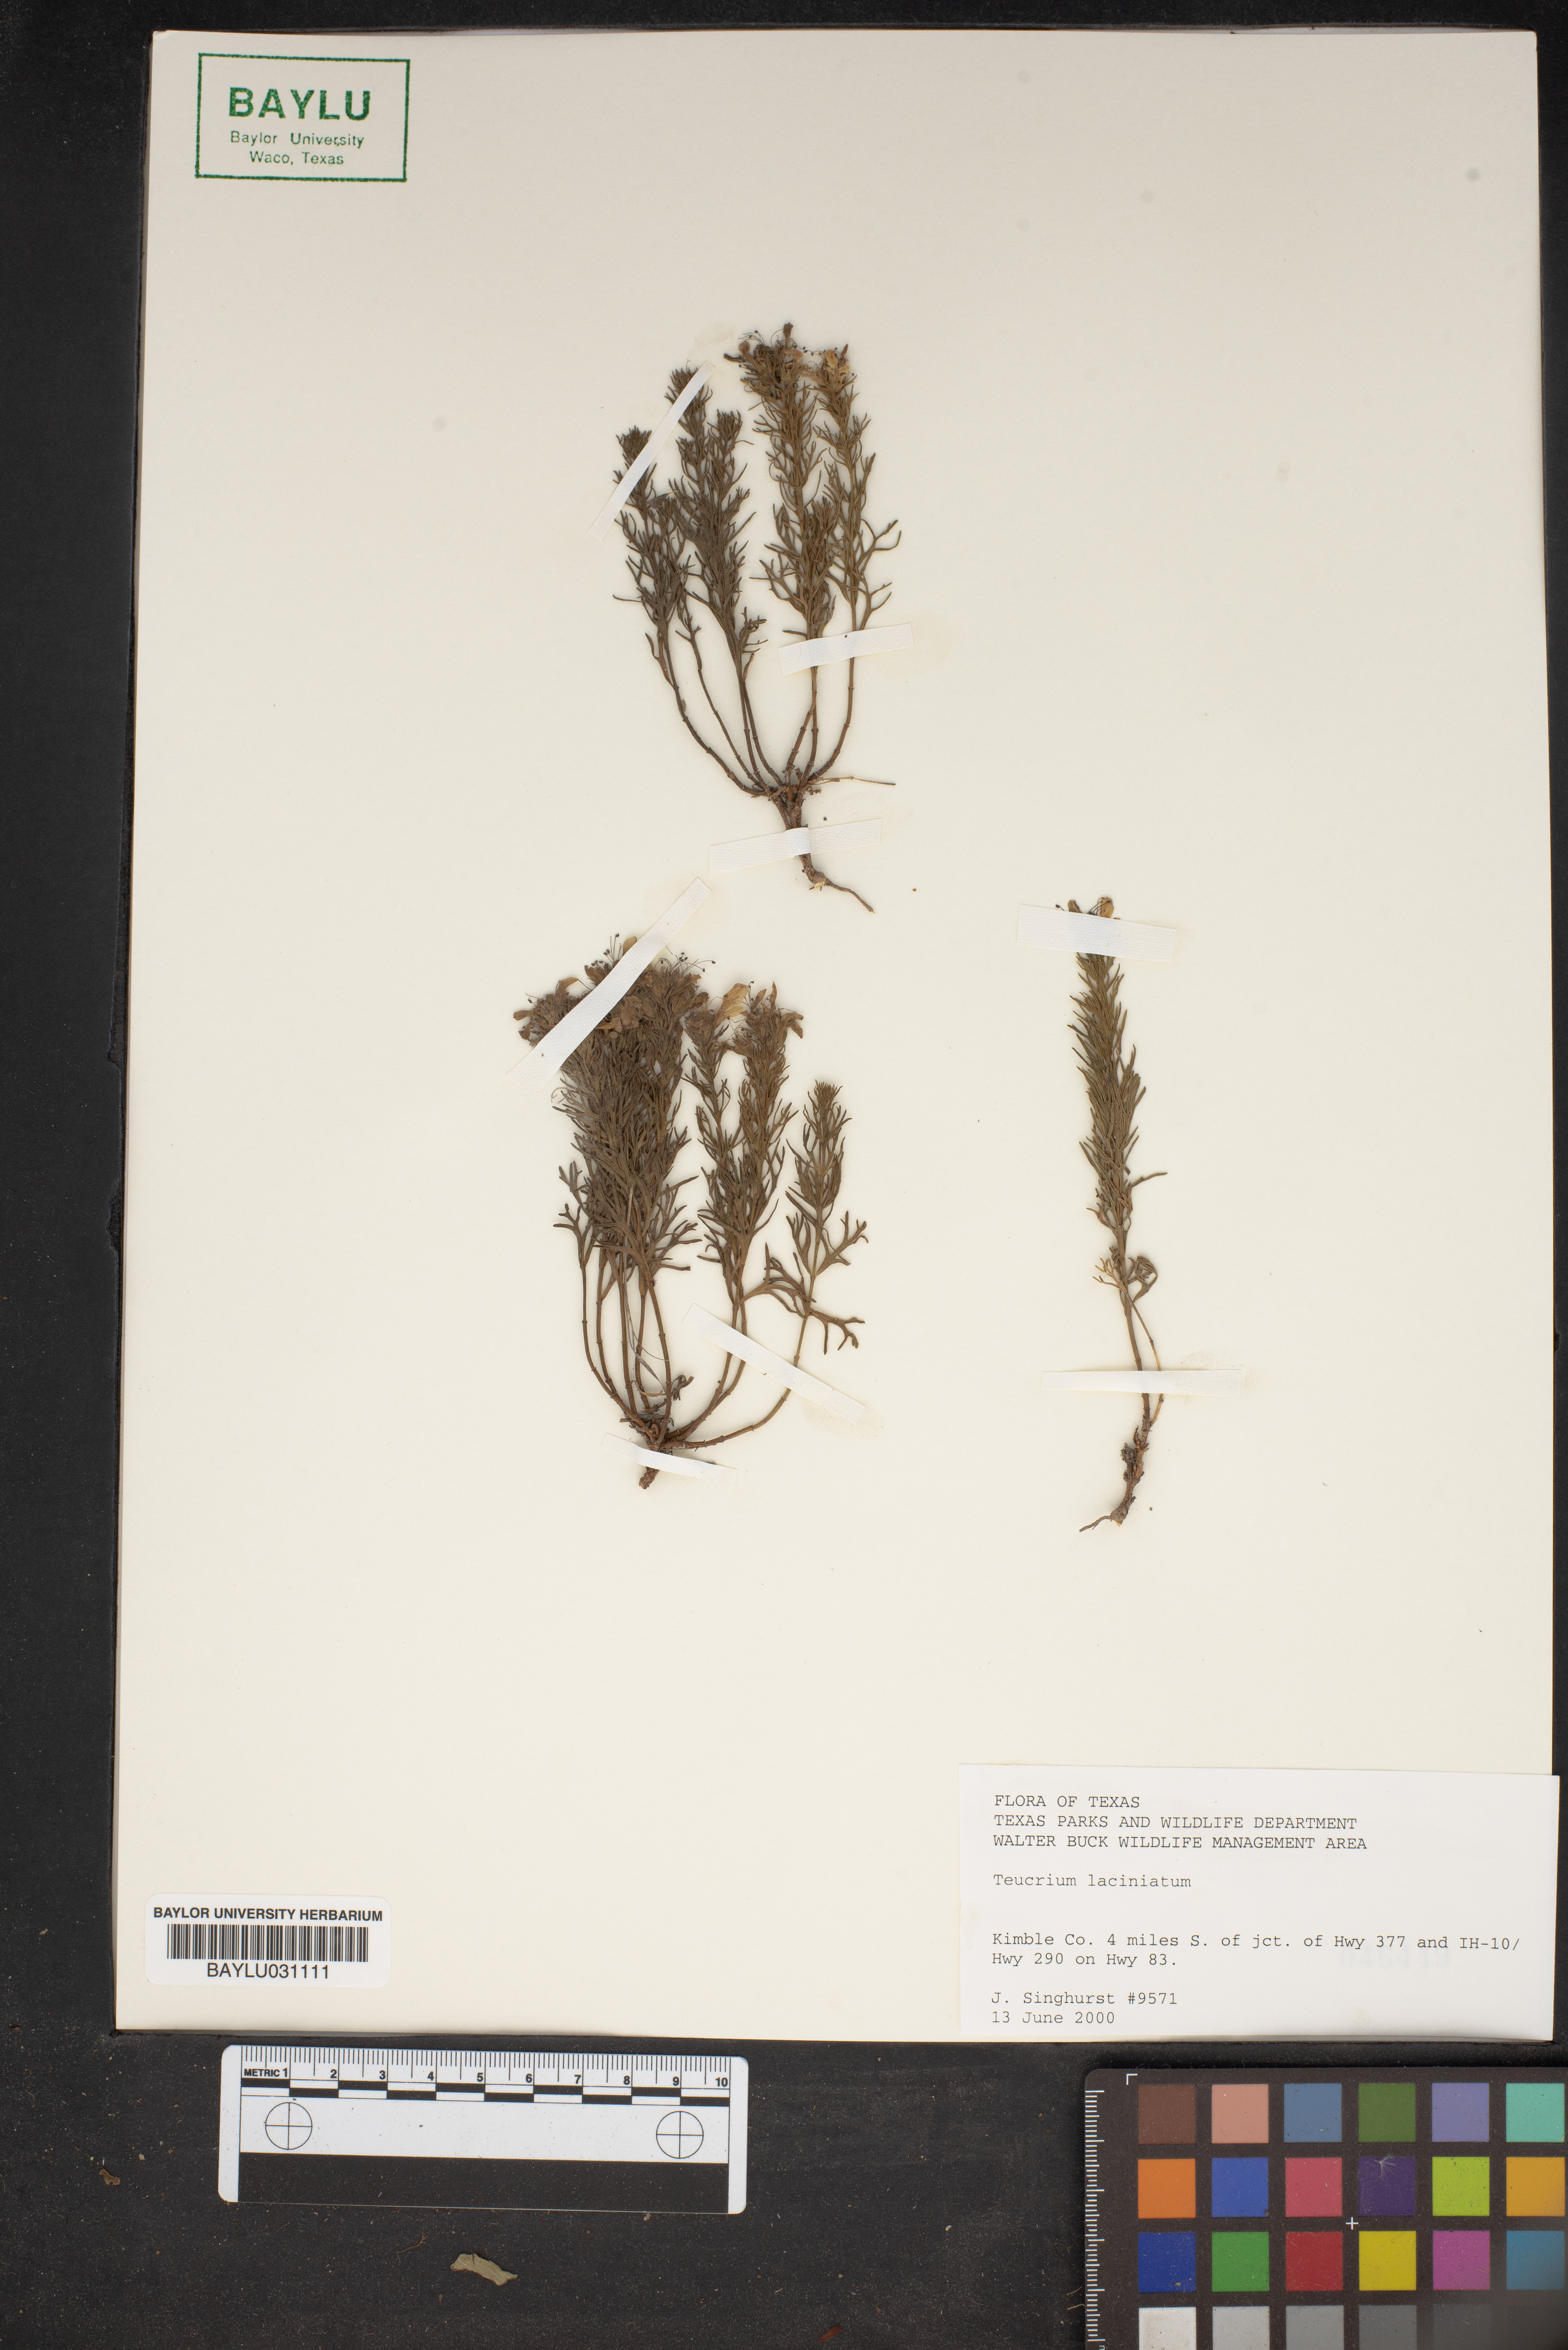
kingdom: Plantae
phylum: Tracheophyta
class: Magnoliopsida
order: Lamiales
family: Lamiaceae
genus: Teucrium
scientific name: Teucrium laciniatum
